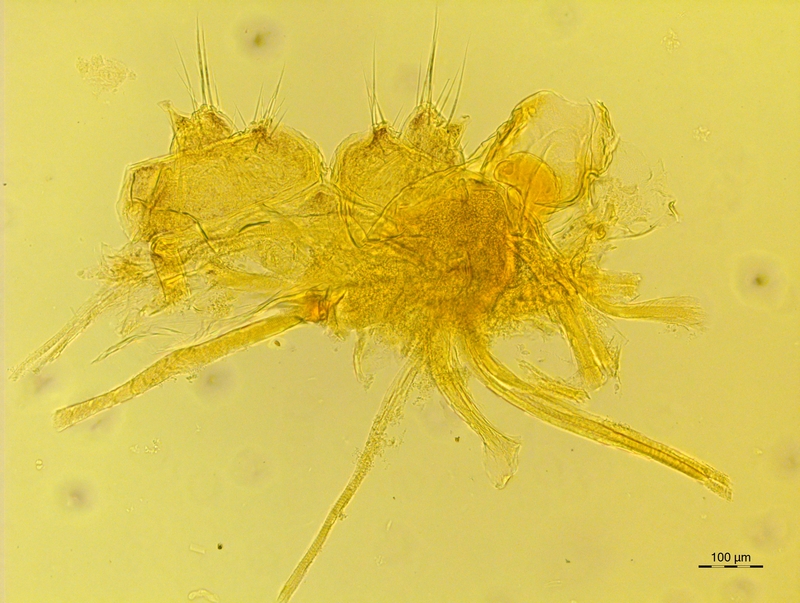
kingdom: Animalia
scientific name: Animalia
